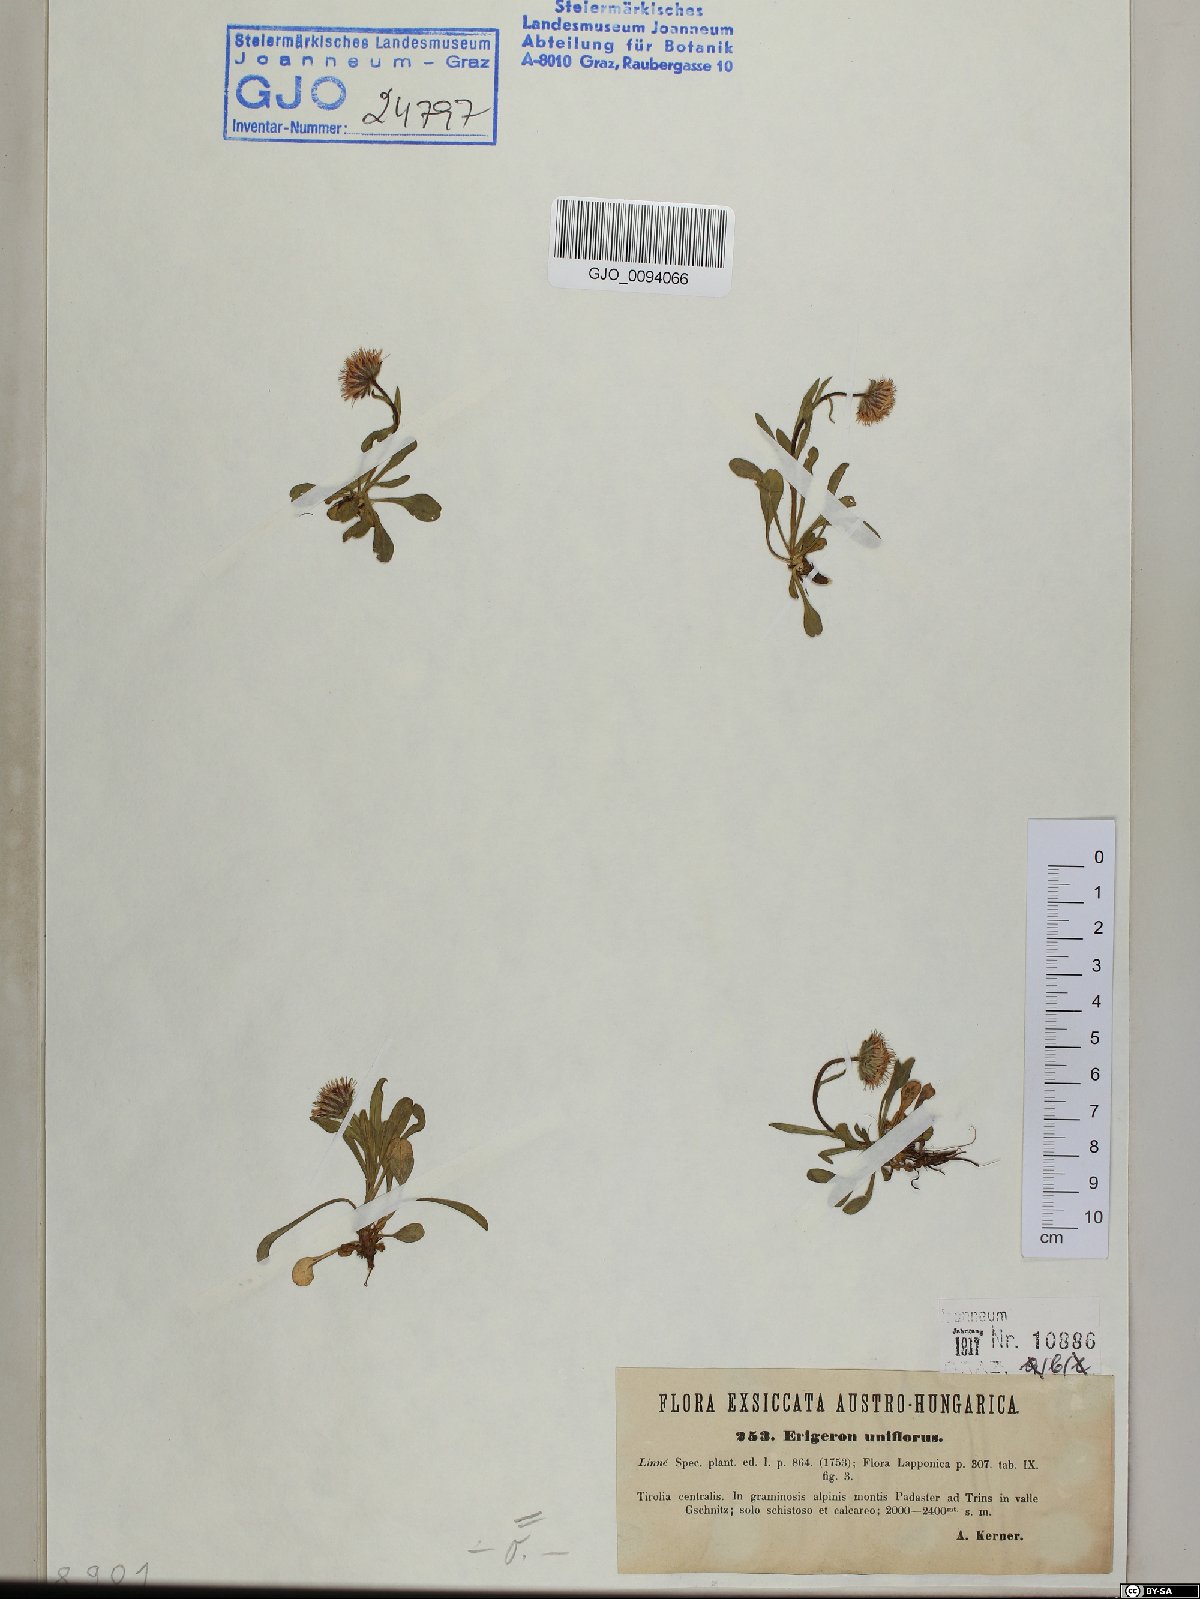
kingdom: Plantae
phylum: Tracheophyta
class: Magnoliopsida
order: Asterales
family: Asteraceae
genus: Erigeron
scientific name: Erigeron uniflorus
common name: Northern daisy
